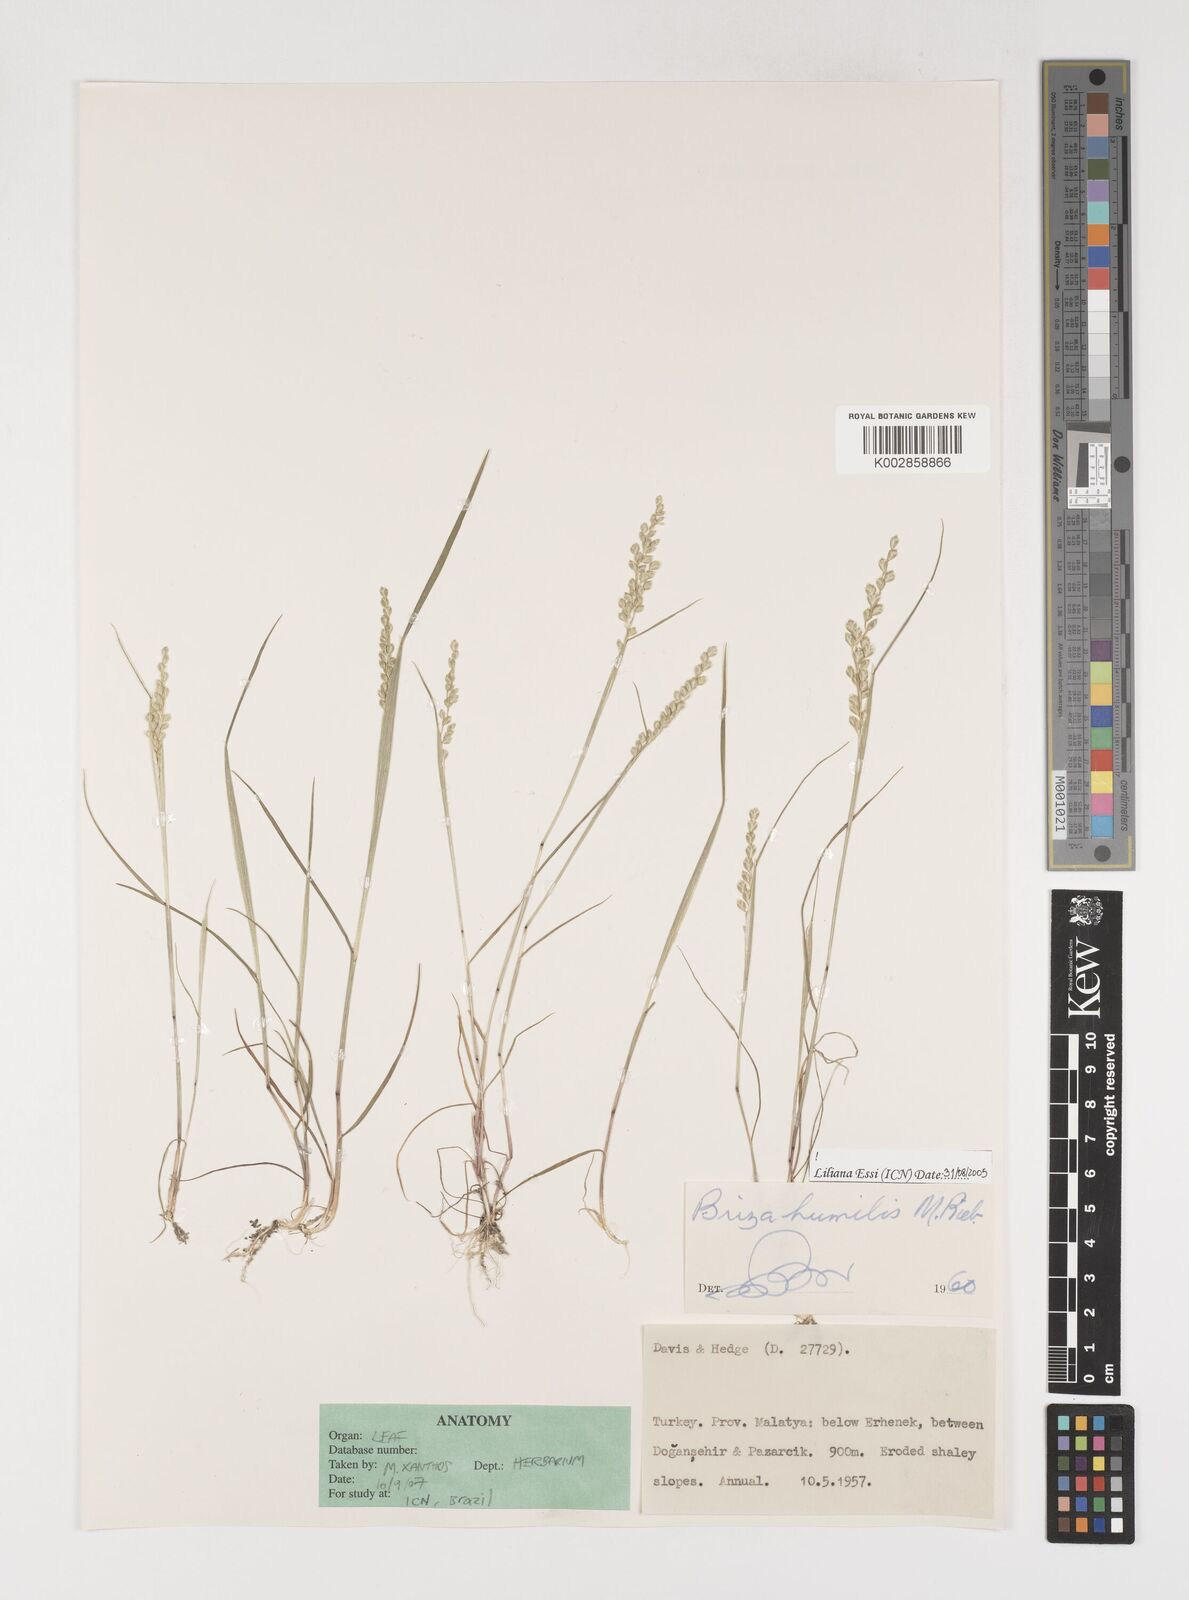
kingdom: Plantae
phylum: Tracheophyta
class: Liliopsida
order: Poales
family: Poaceae
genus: Briza
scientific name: Briza humilis
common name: Spiked quaking grass
